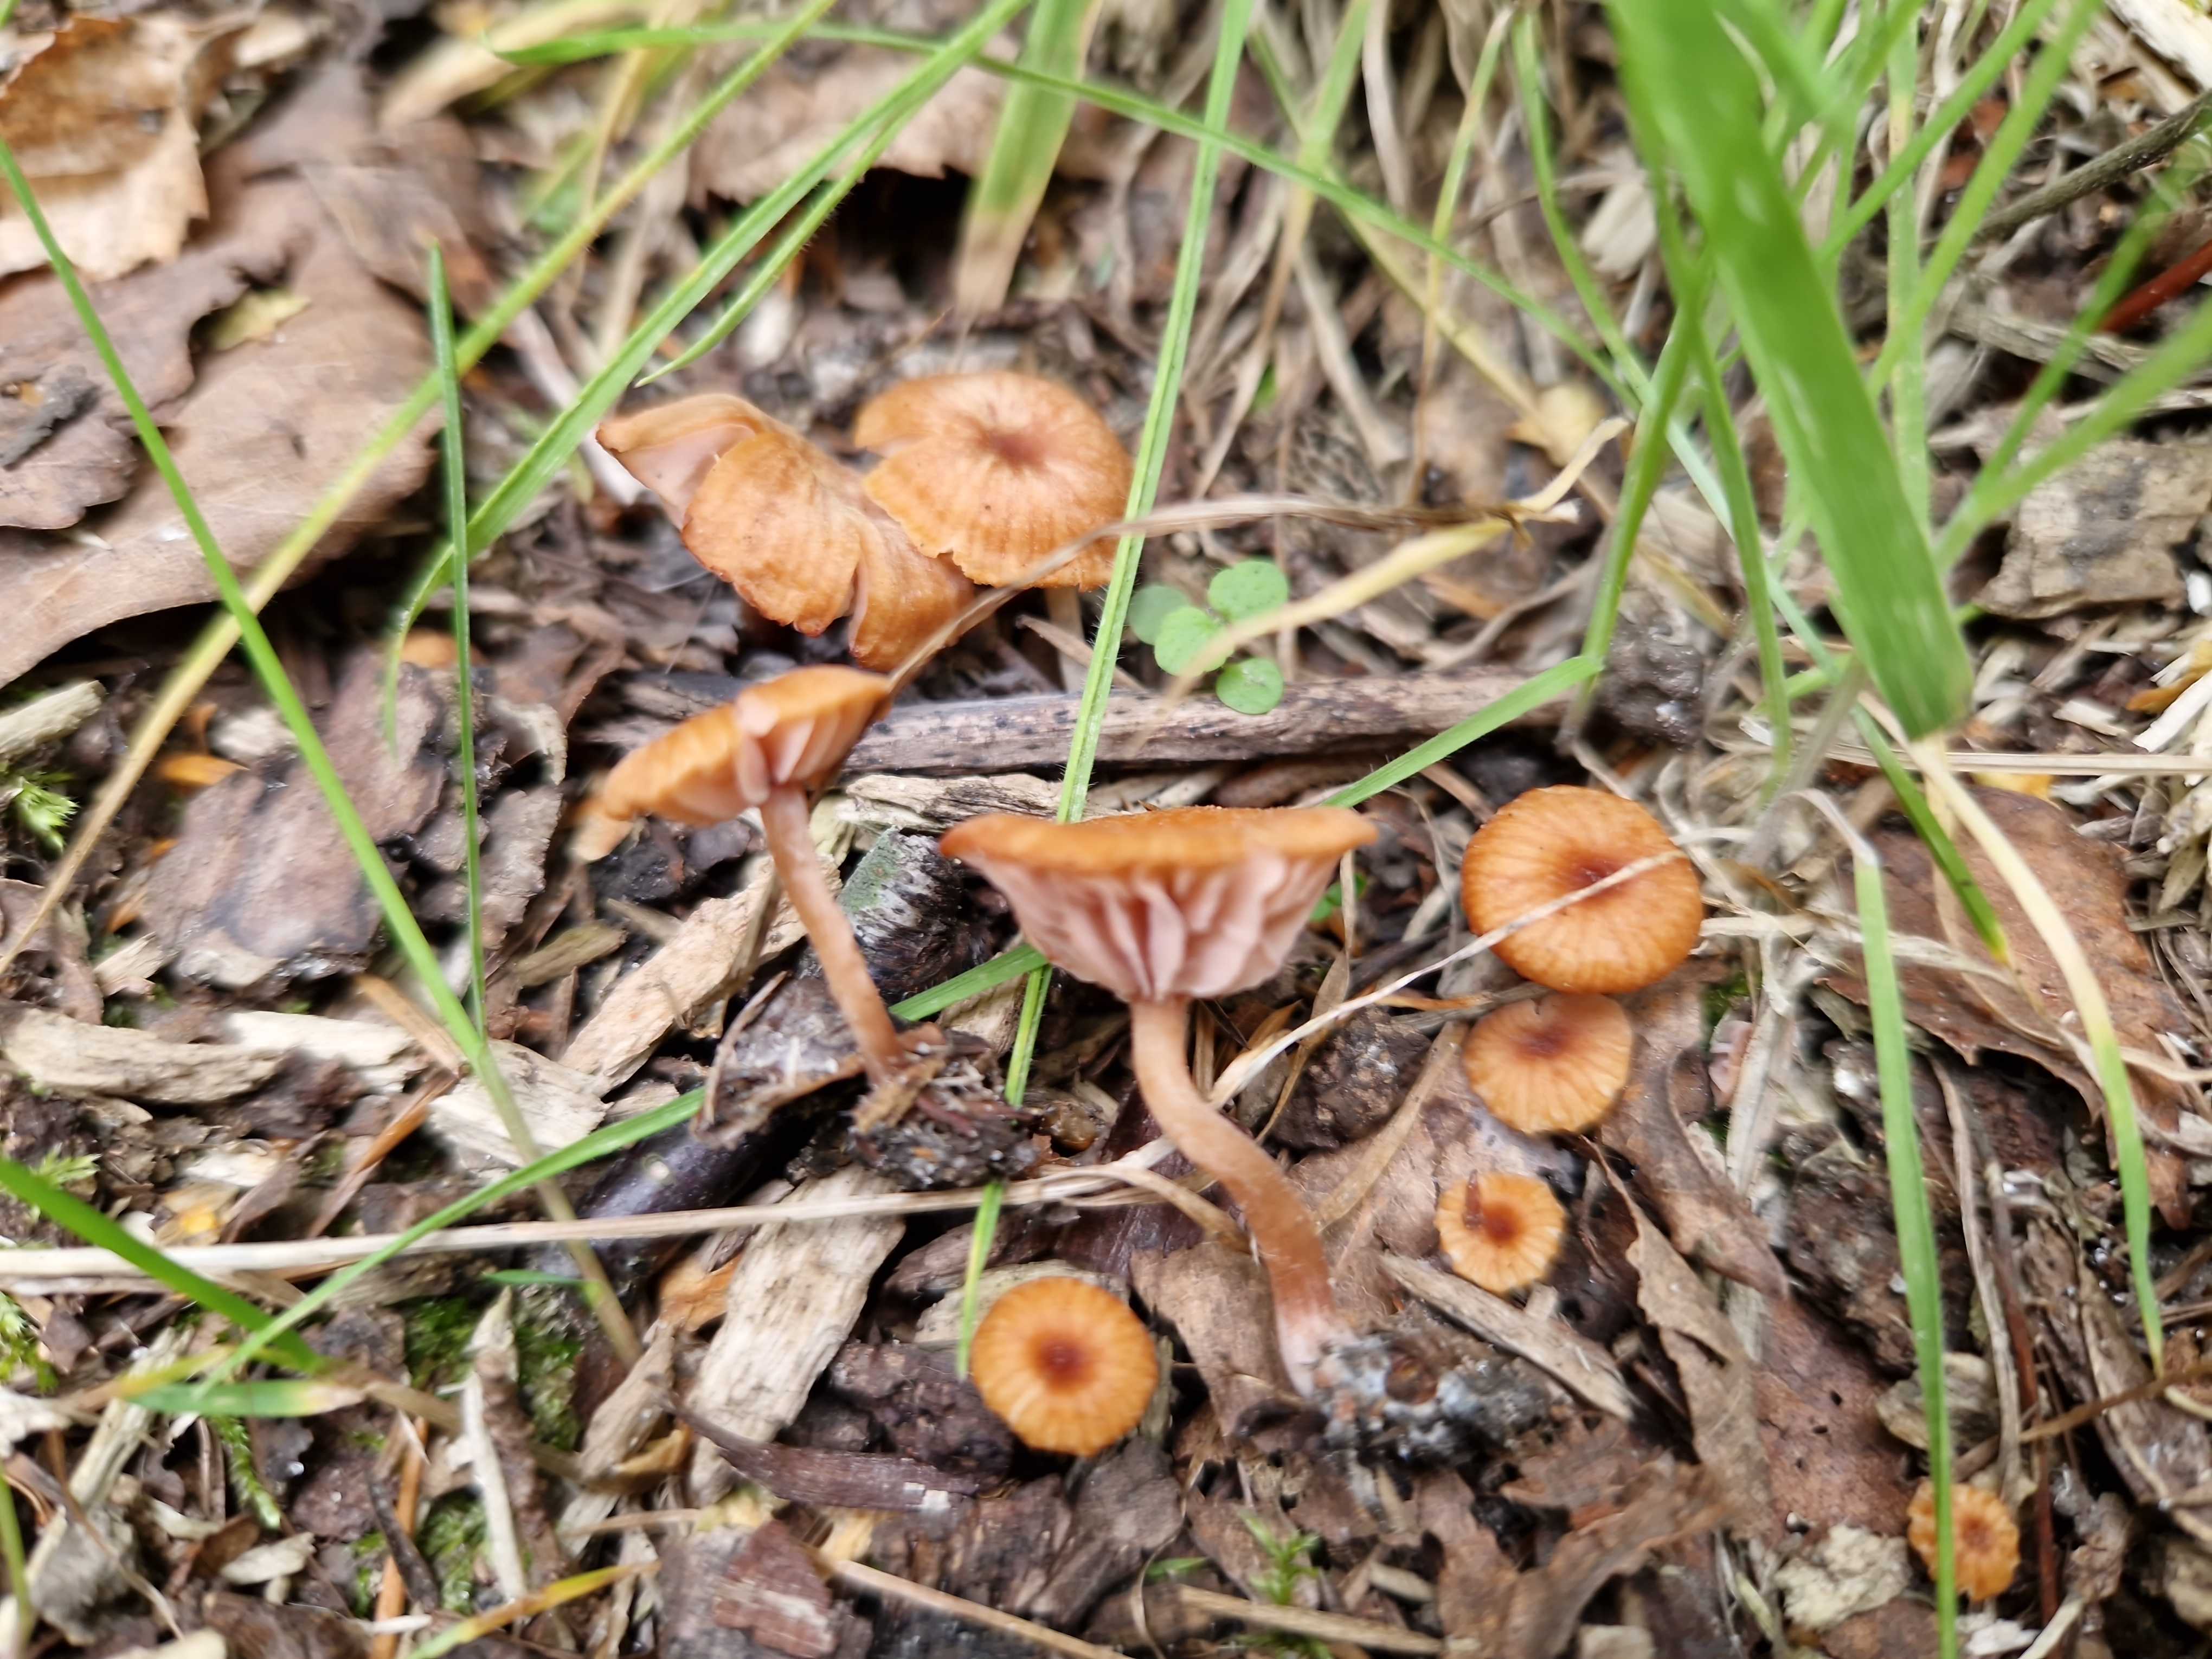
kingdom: Fungi
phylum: Basidiomycota
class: Agaricomycetes
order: Agaricales
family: Hydnangiaceae
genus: Laccaria
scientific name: Laccaria tortilis
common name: krybende ametysthat
